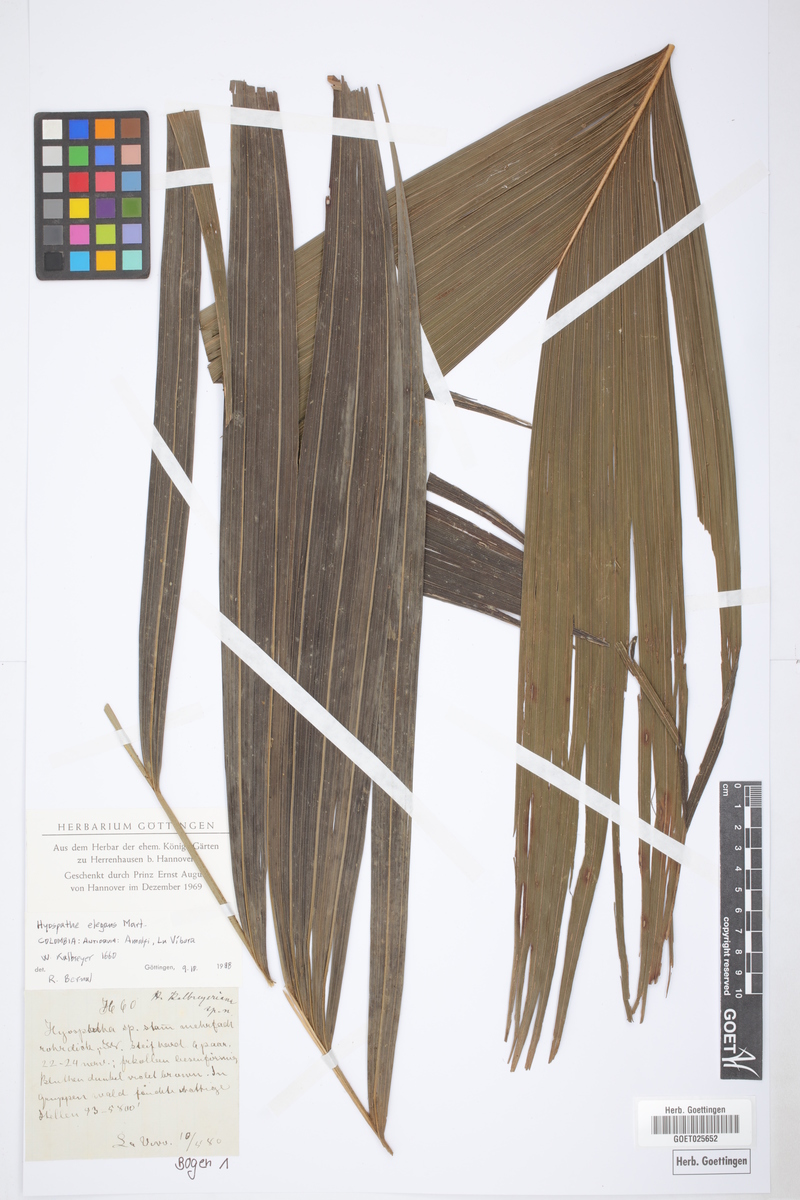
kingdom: Plantae
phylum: Tracheophyta
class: Liliopsida
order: Arecales
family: Arecaceae
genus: Hyospathe
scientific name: Hyospathe elegans
